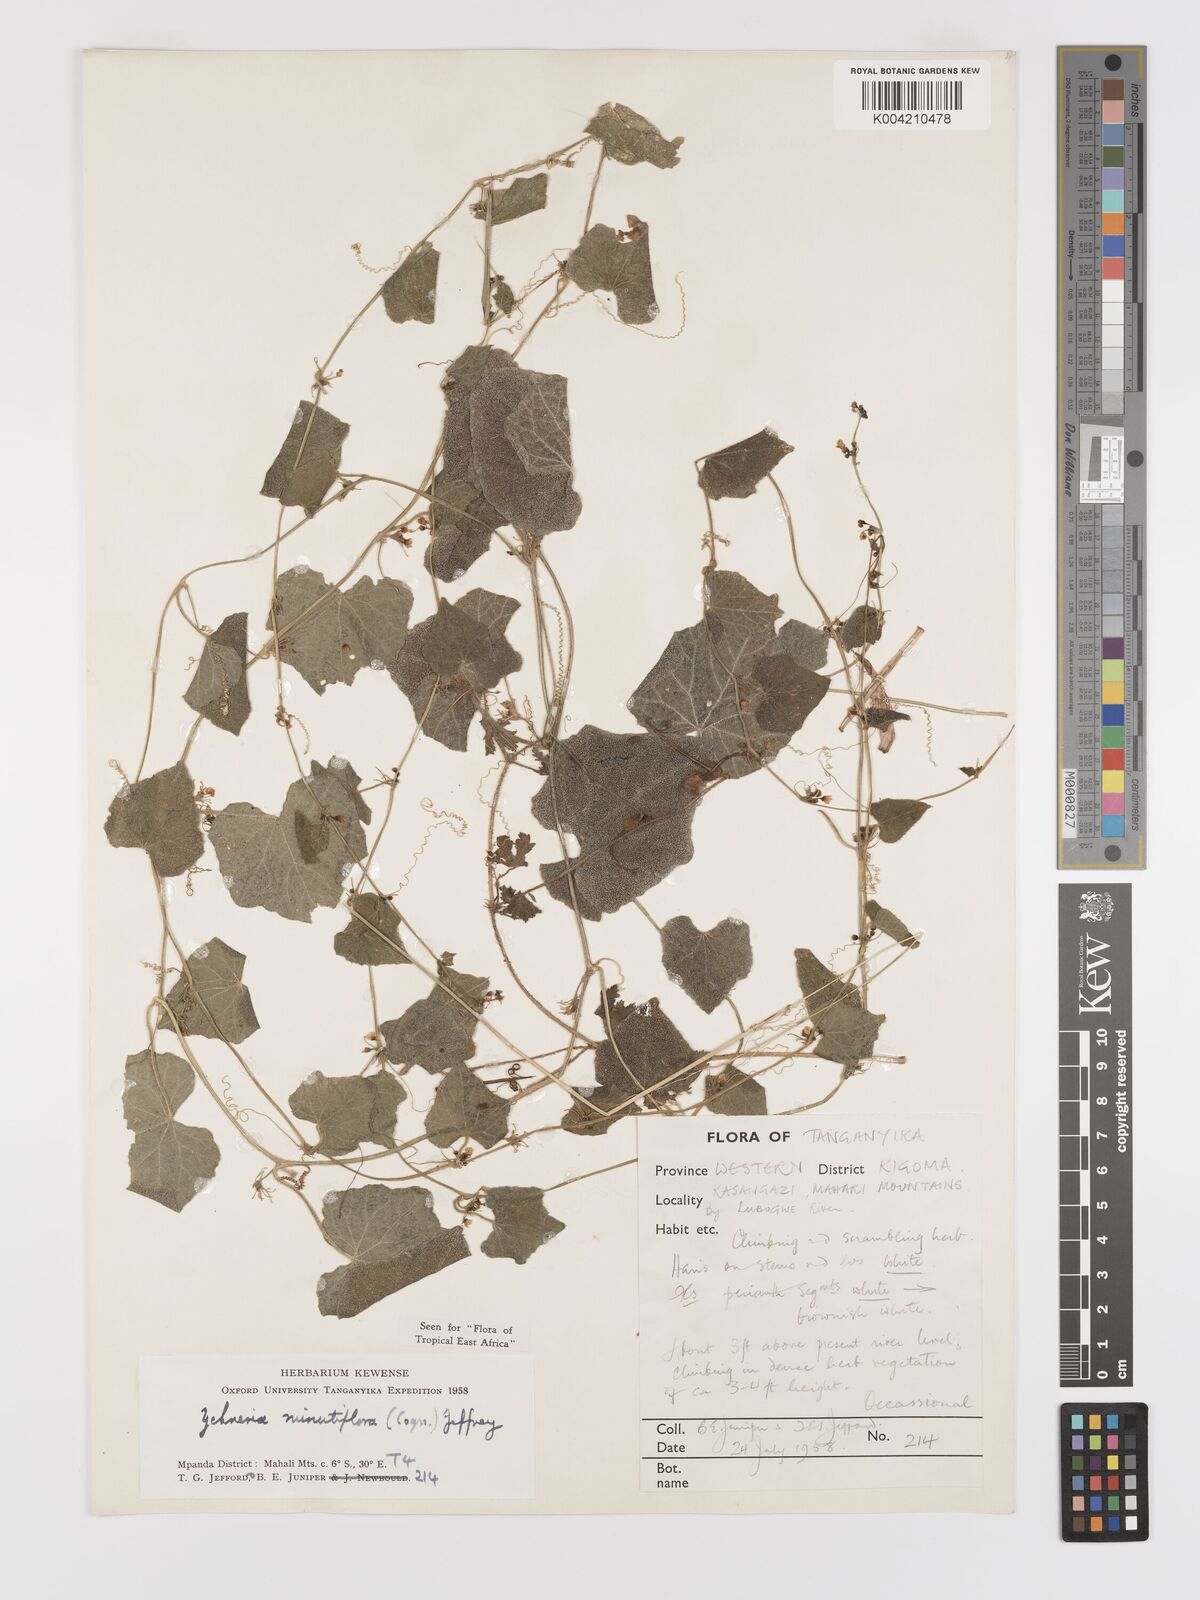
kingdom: Plantae
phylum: Tracheophyta
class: Magnoliopsida
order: Cucurbitales
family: Cucurbitaceae
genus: Zehneria
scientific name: Zehneria minutiflora
